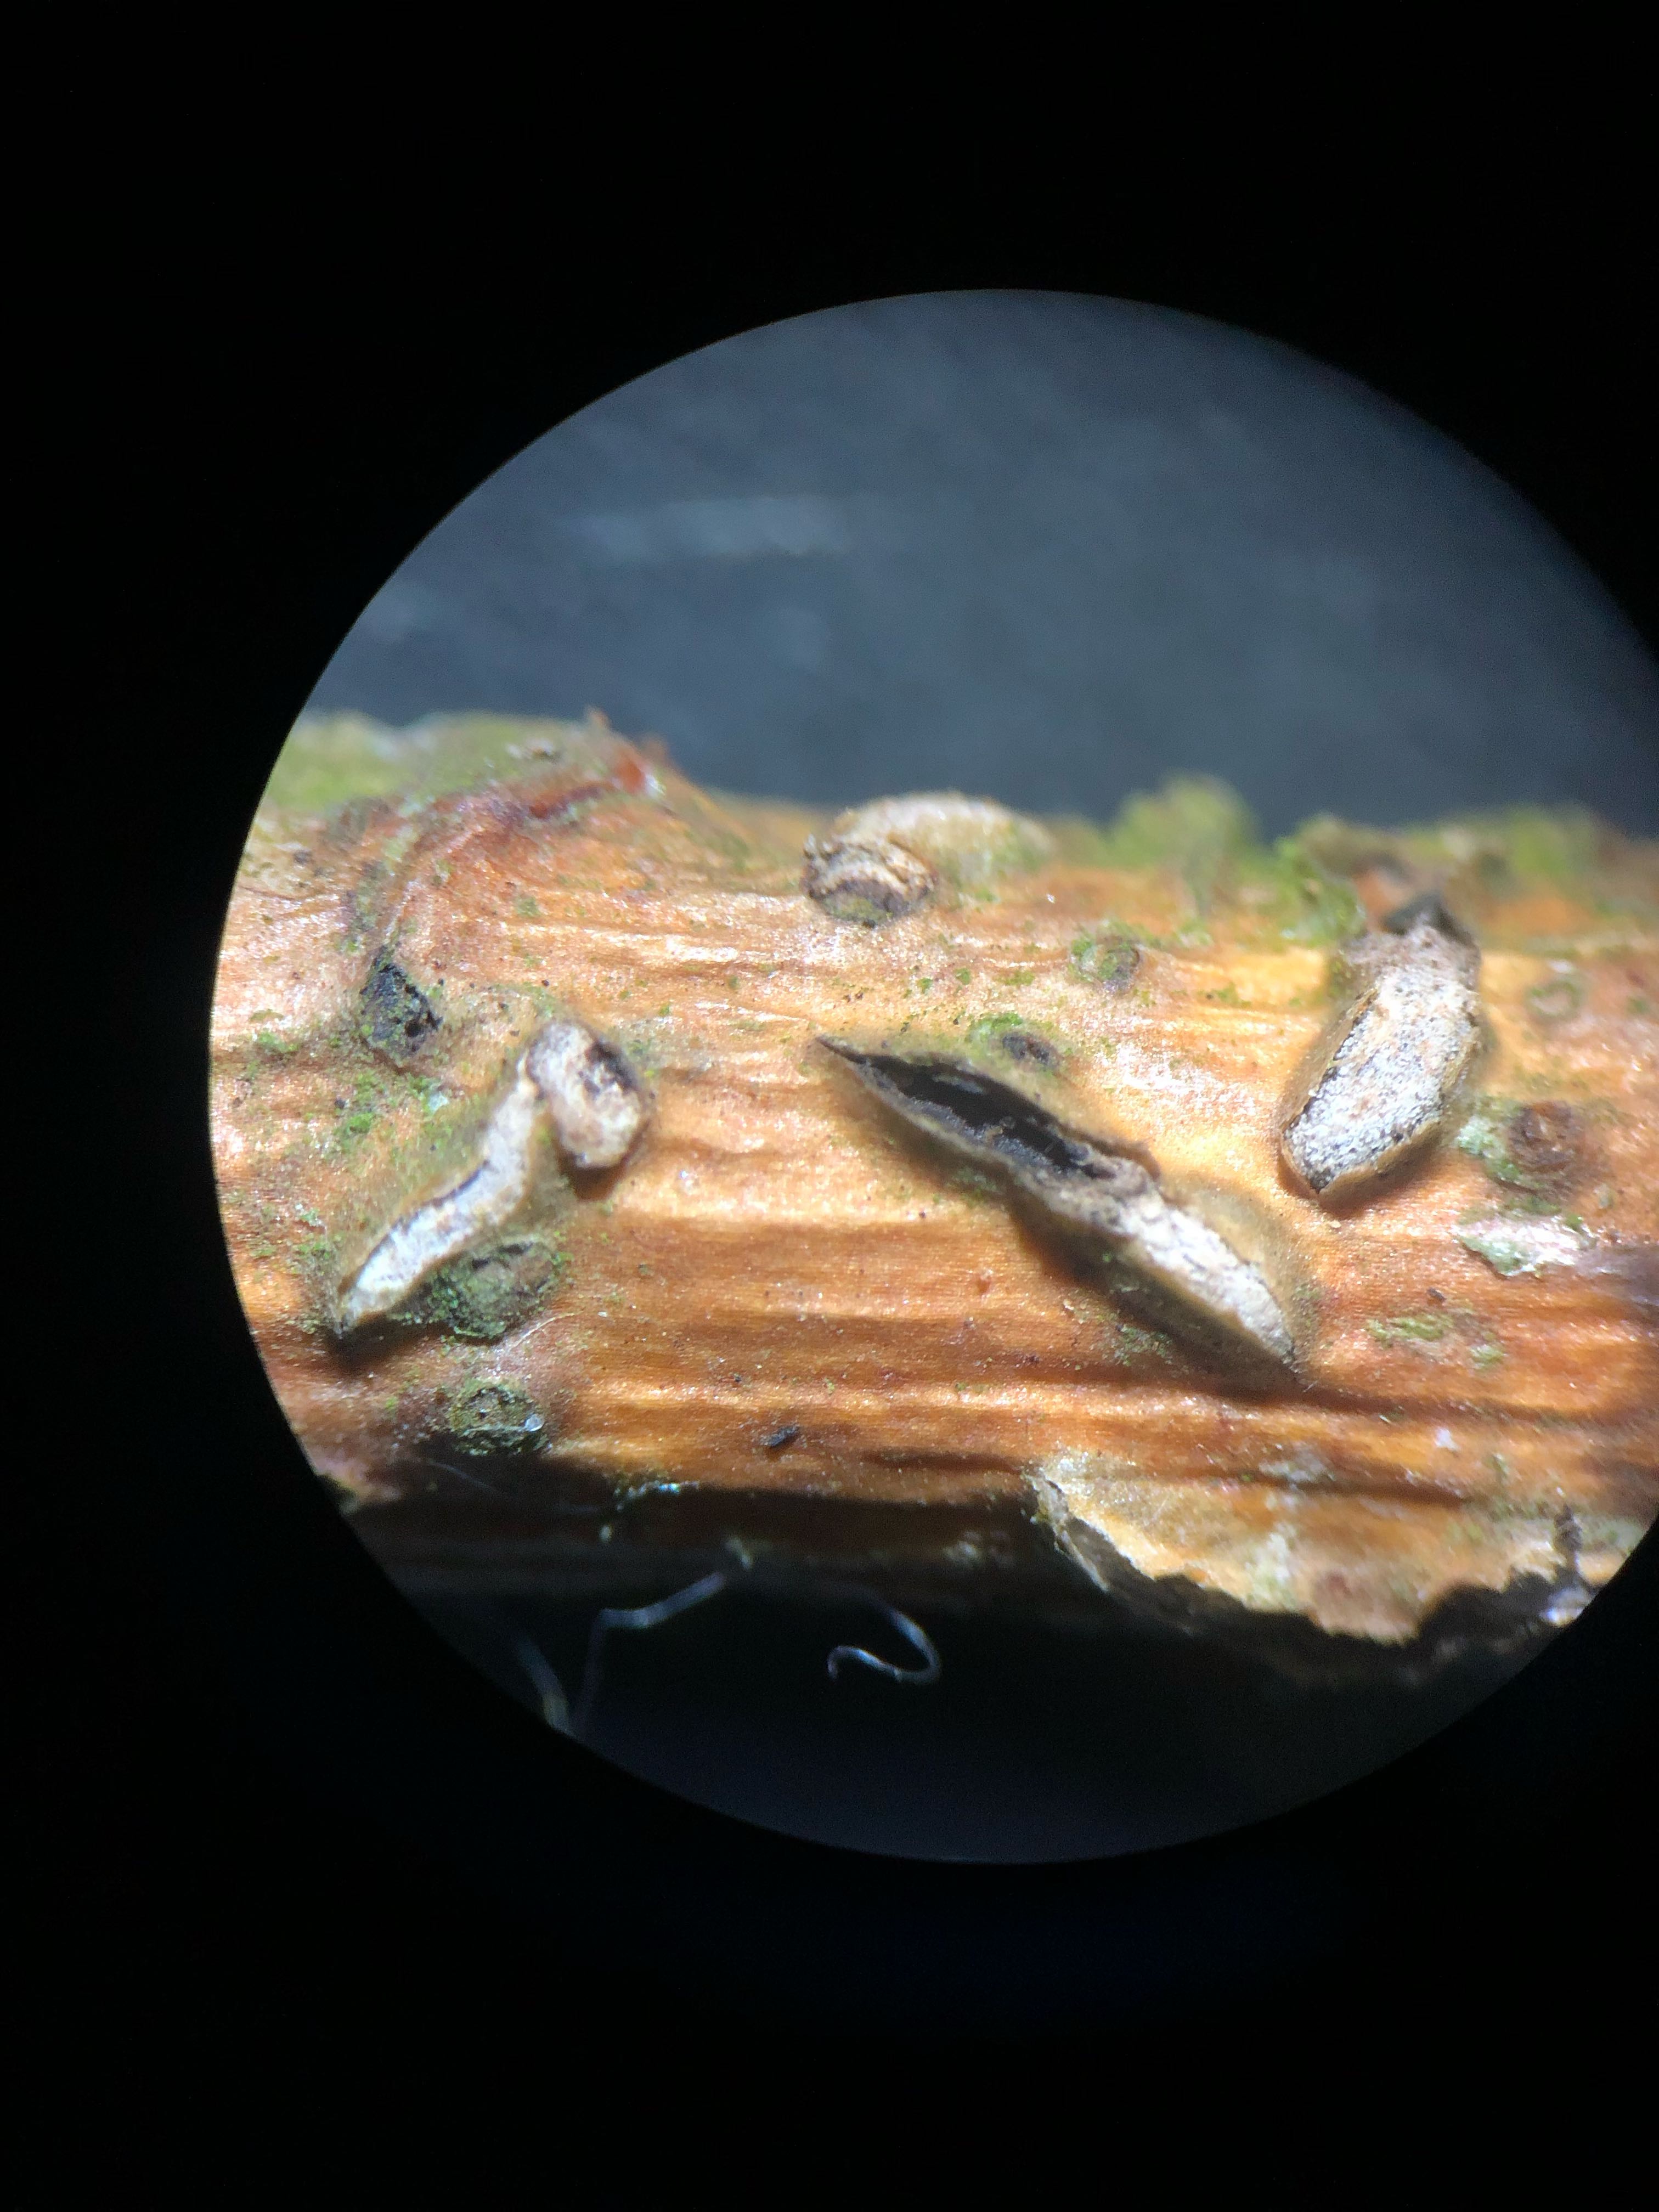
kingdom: Fungi
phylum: Ascomycota
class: Leotiomycetes
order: Rhytismatales
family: Rhytismataceae
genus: Colpoma
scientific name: Colpoma quercinum
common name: ege-sprækkeskive
